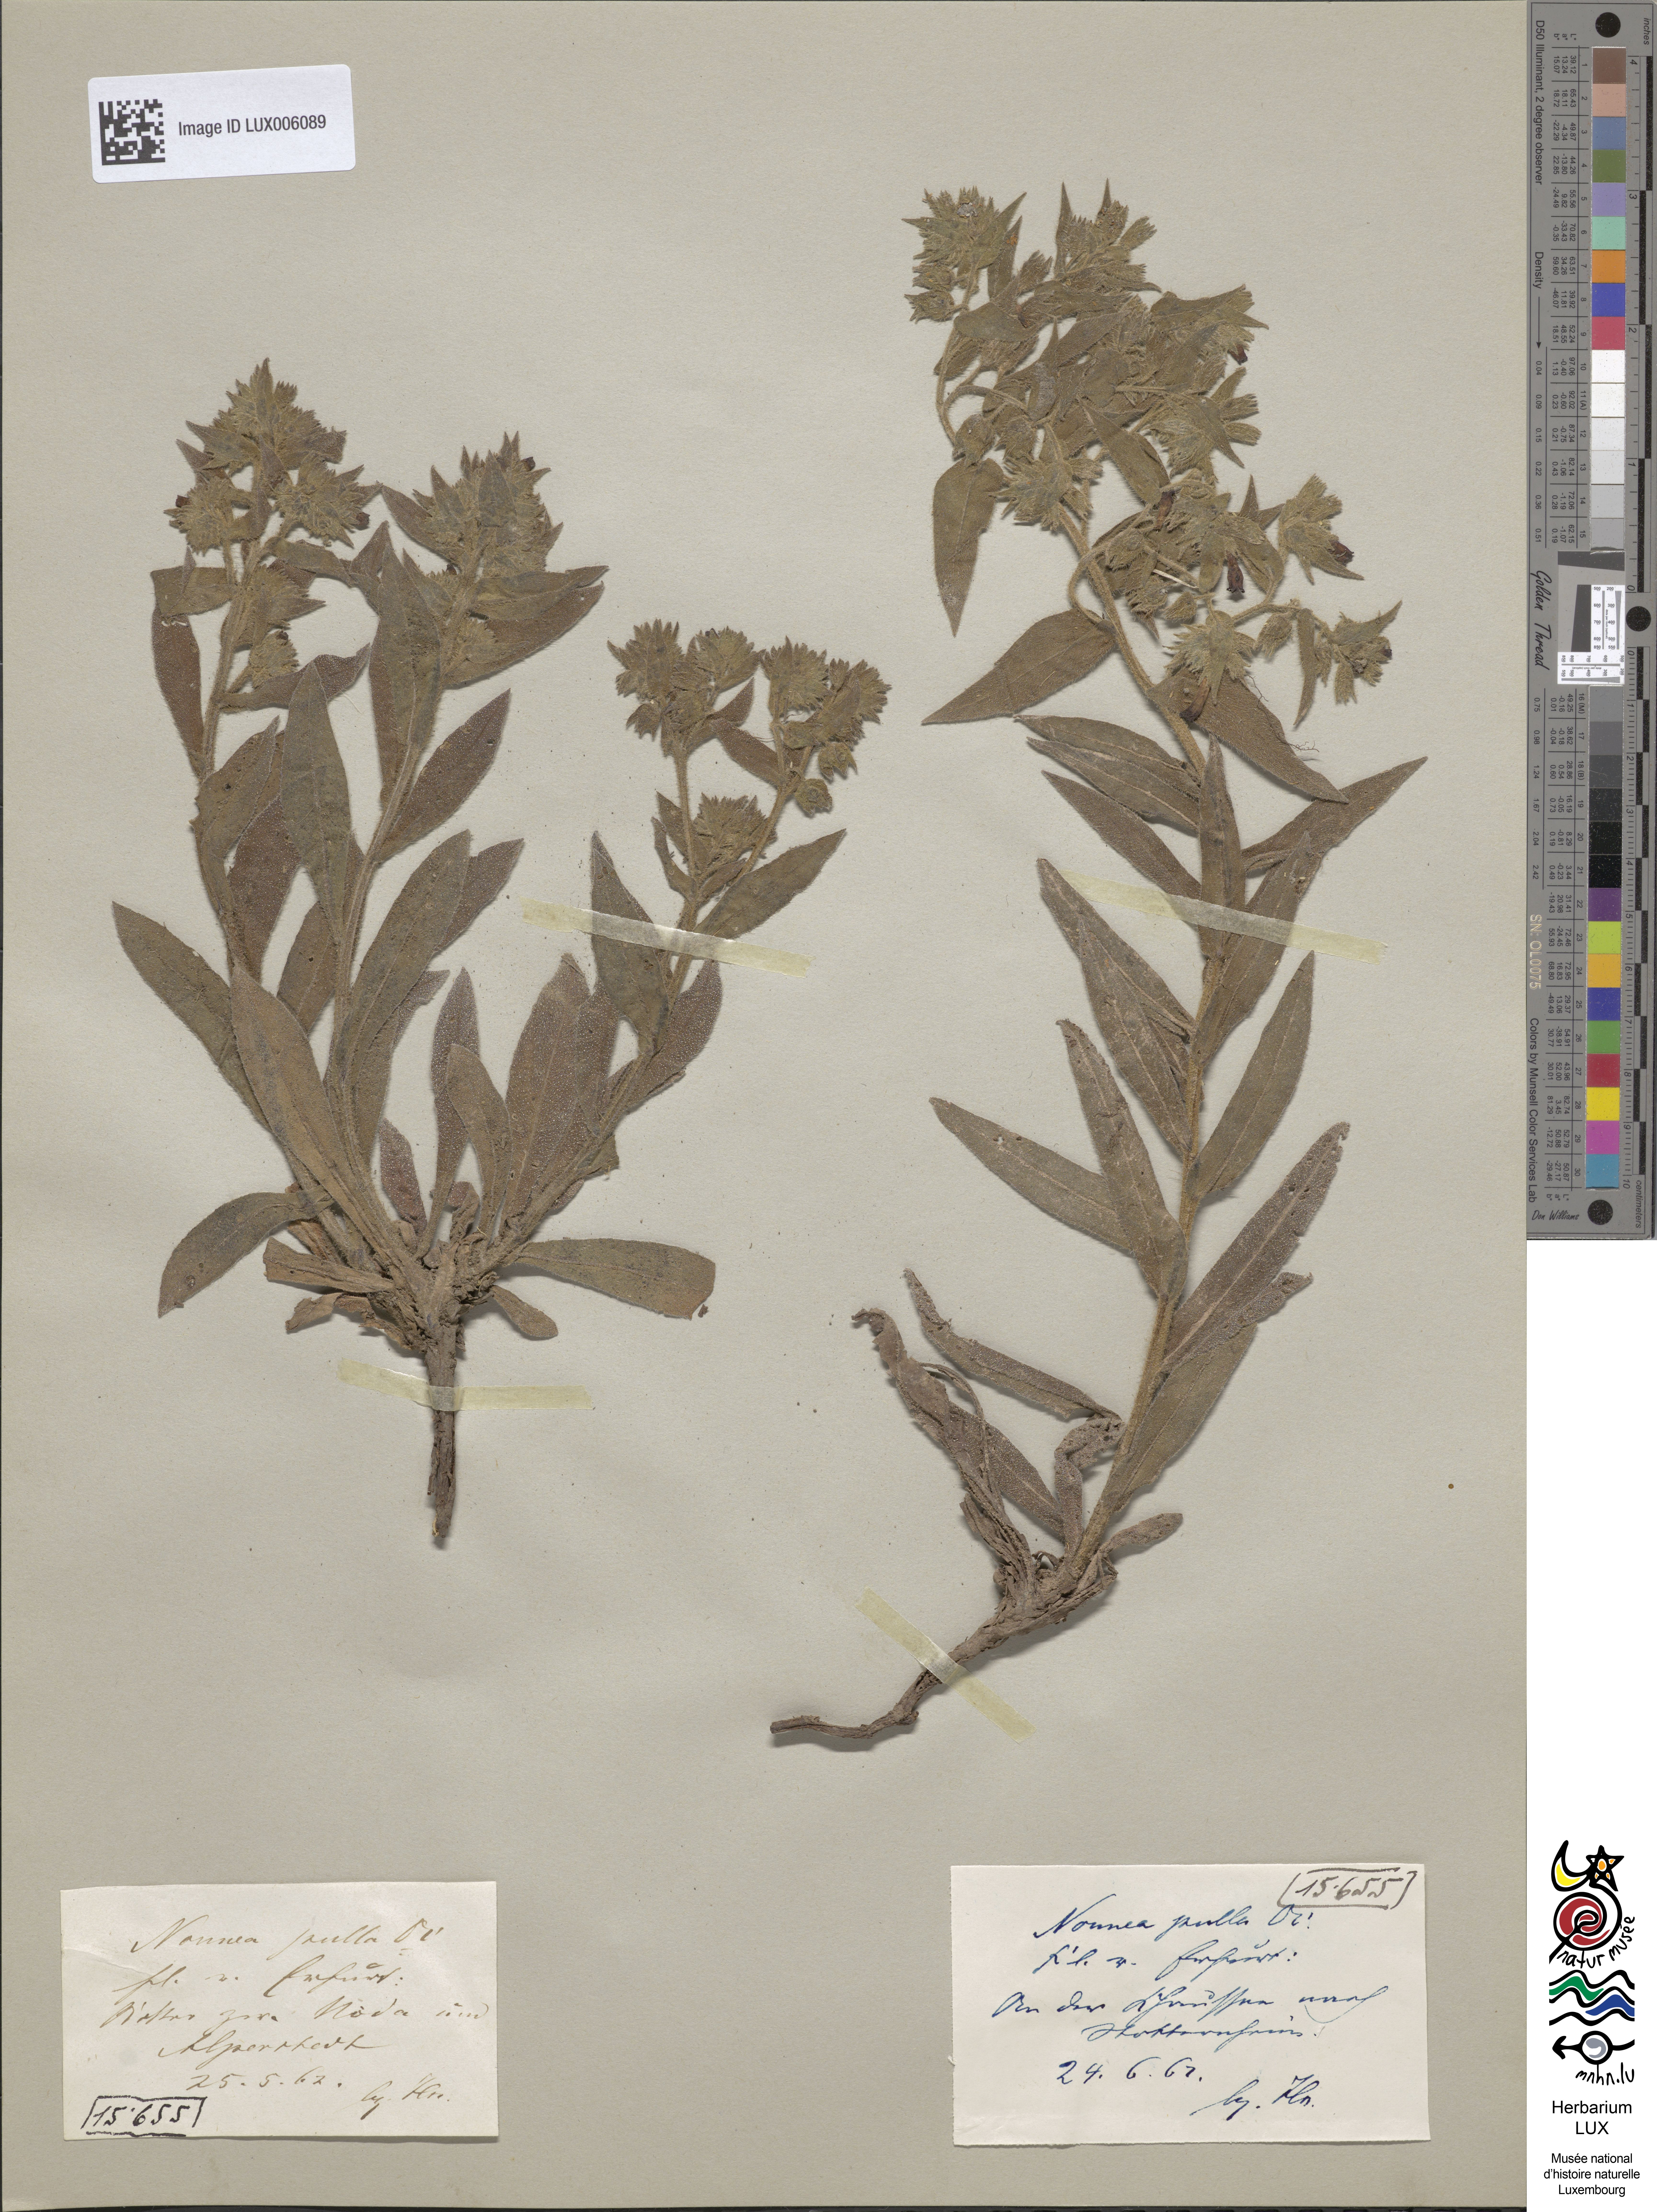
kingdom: Plantae
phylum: Tracheophyta
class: Magnoliopsida
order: Boraginales
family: Boraginaceae
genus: Nonea
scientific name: Nonea pulla
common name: Brown nonea
